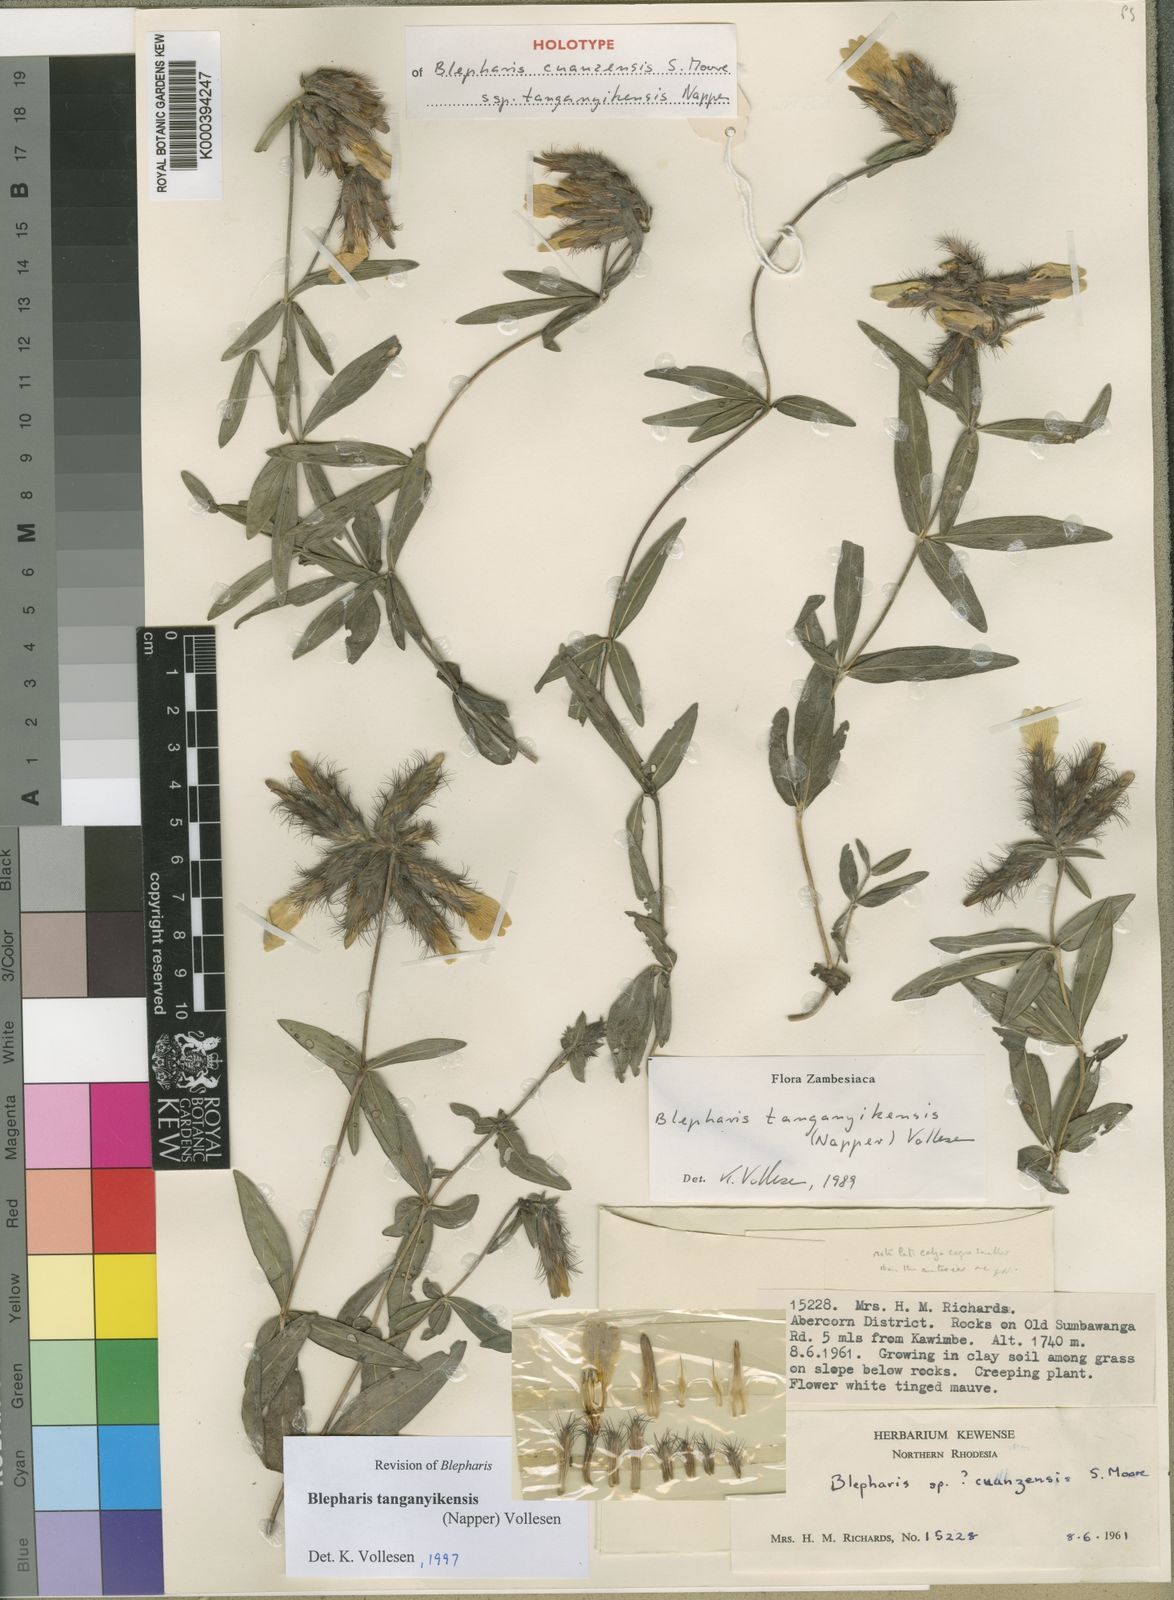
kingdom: Plantae
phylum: Tracheophyta
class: Magnoliopsida
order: Lamiales
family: Acanthaceae
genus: Blepharis
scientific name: Blepharis tanganyikensis
